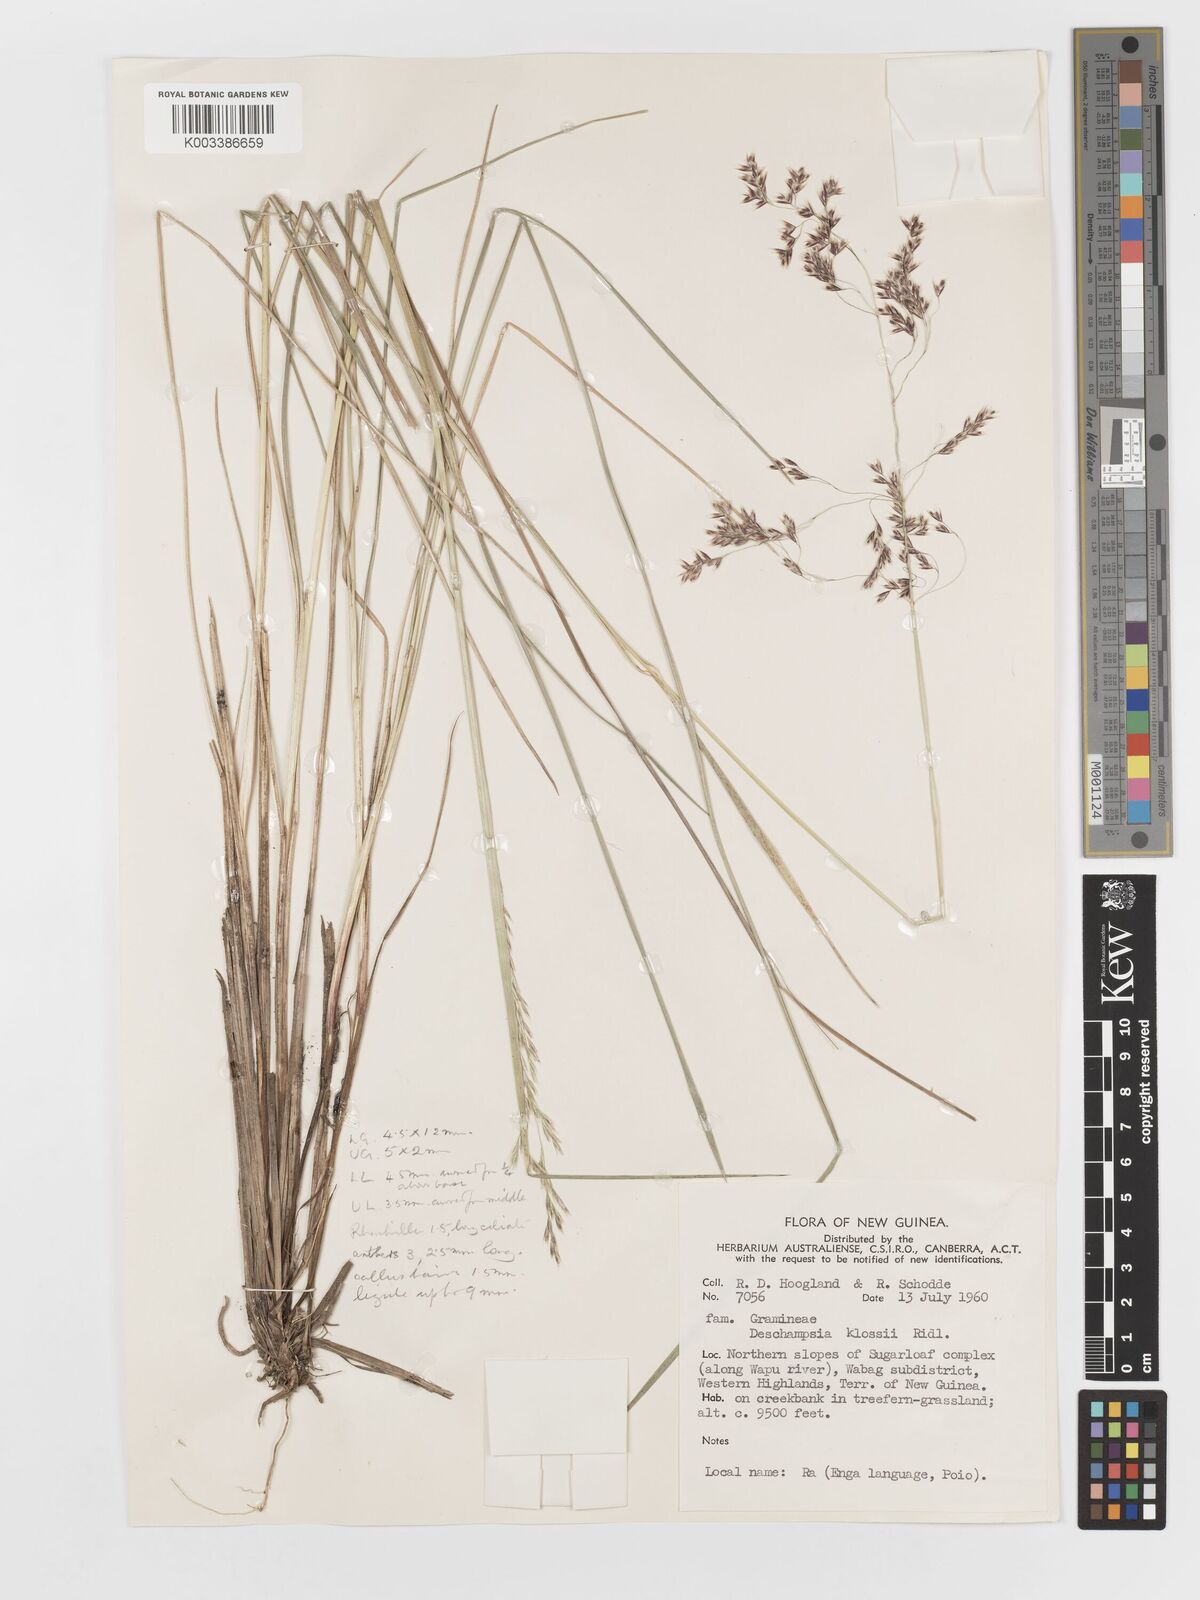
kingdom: Plantae
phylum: Tracheophyta
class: Liliopsida
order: Poales
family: Poaceae
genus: Deschampsia
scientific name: Deschampsia klossii
